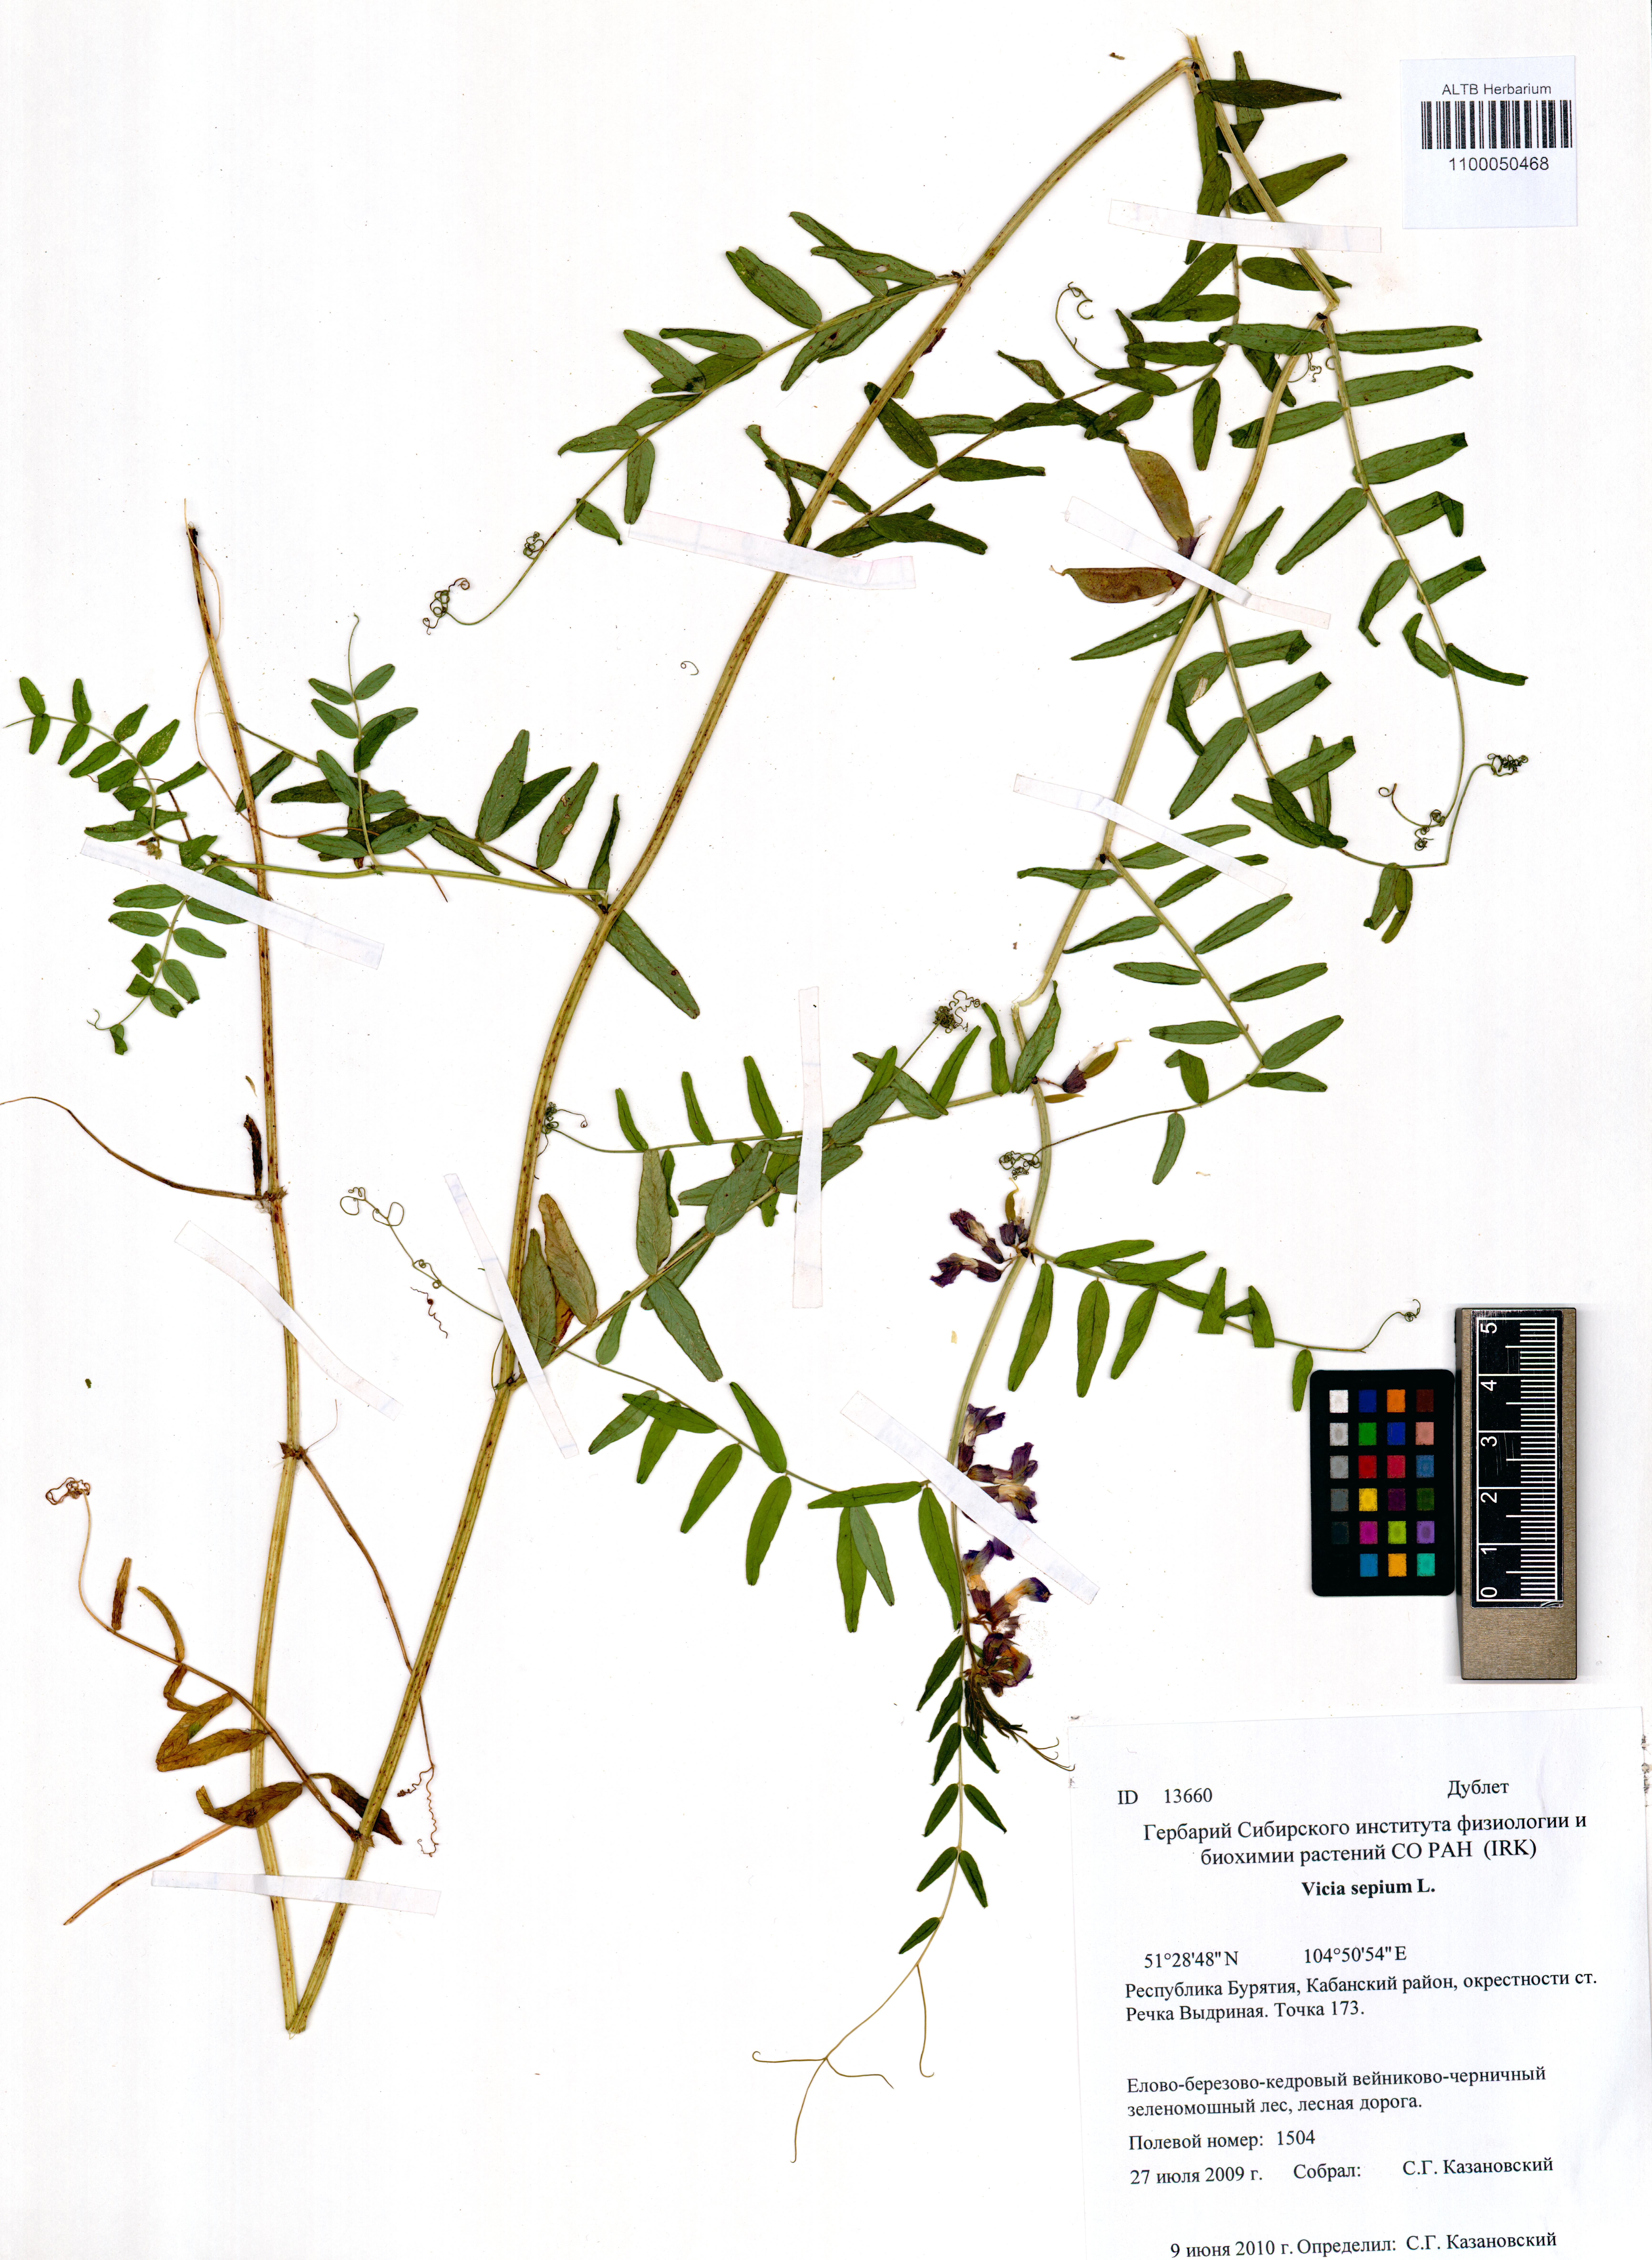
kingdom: Plantae
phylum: Tracheophyta
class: Magnoliopsida
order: Fabales
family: Fabaceae
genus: Vicia
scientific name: Vicia sepium
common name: Bush vetch
